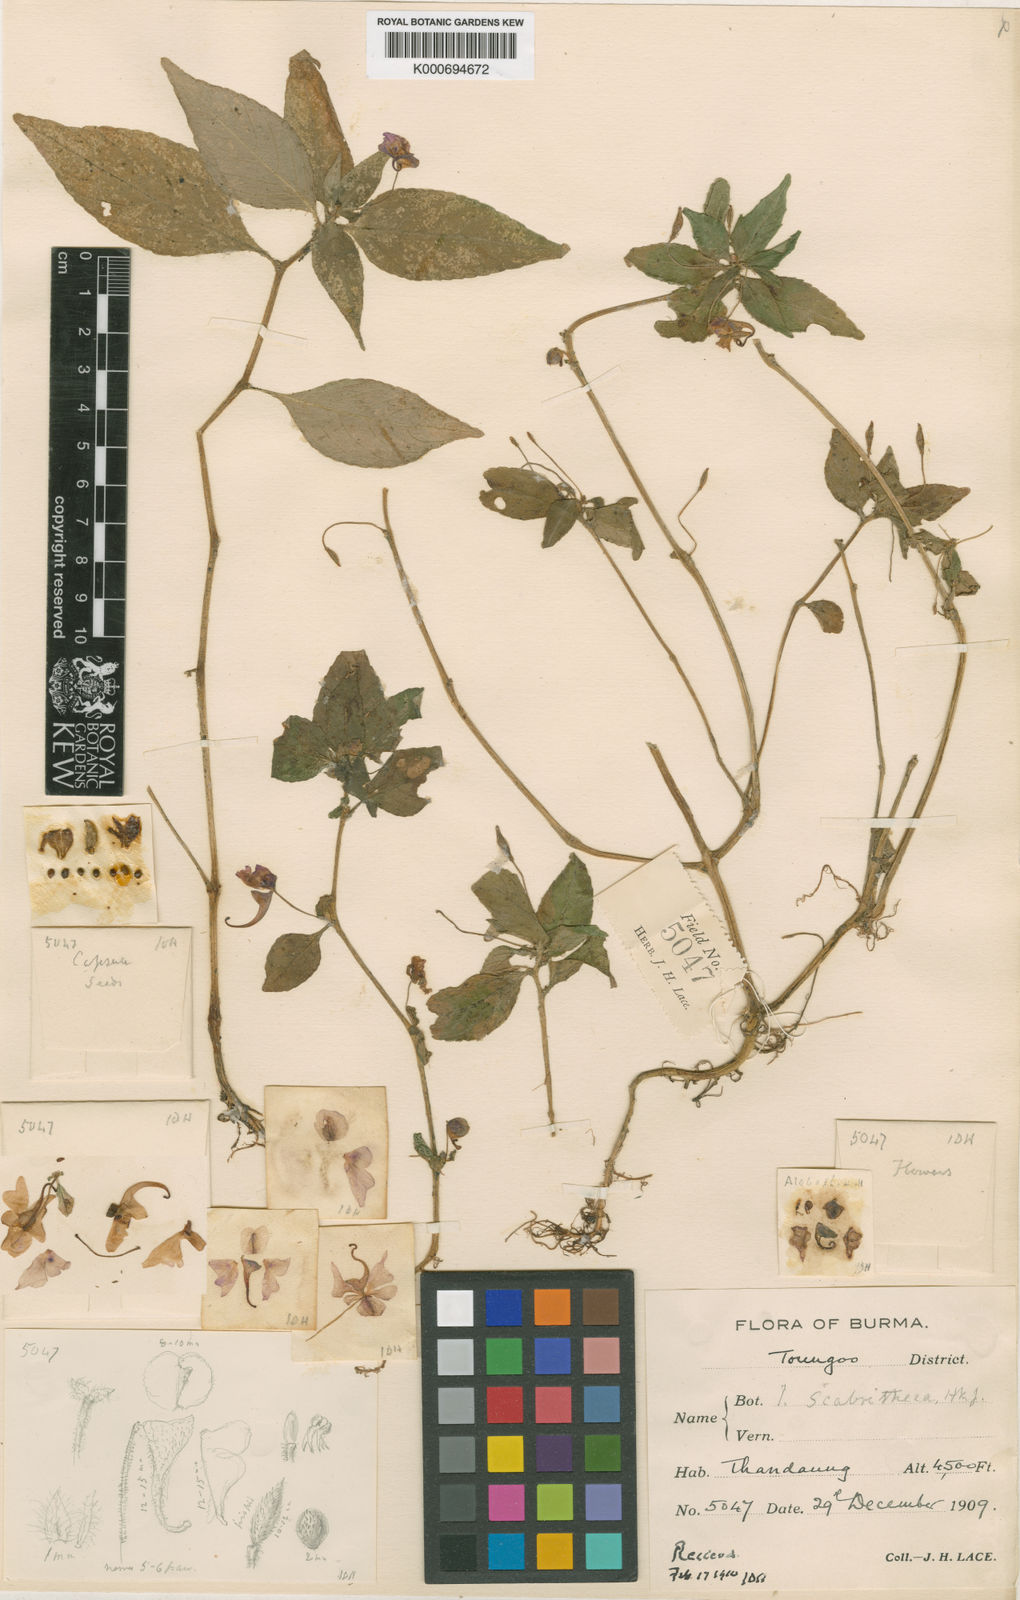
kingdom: Plantae
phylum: Tracheophyta
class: Magnoliopsida
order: Ericales
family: Balsaminaceae
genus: Impatiens
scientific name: Impatiens
